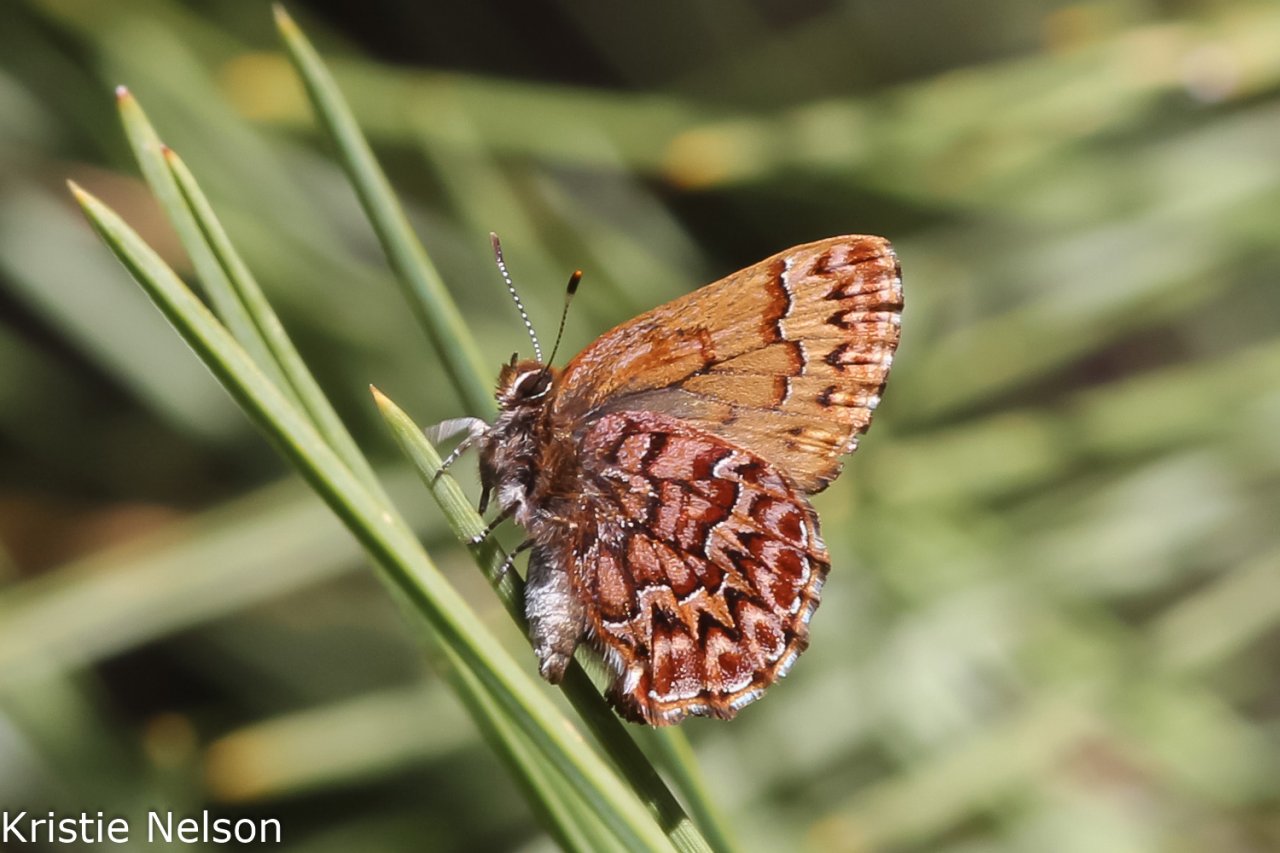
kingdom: Animalia
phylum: Arthropoda
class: Insecta
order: Lepidoptera
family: Lycaenidae
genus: Incisalia
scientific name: Incisalia eryphon
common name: Western Pine Elfin
